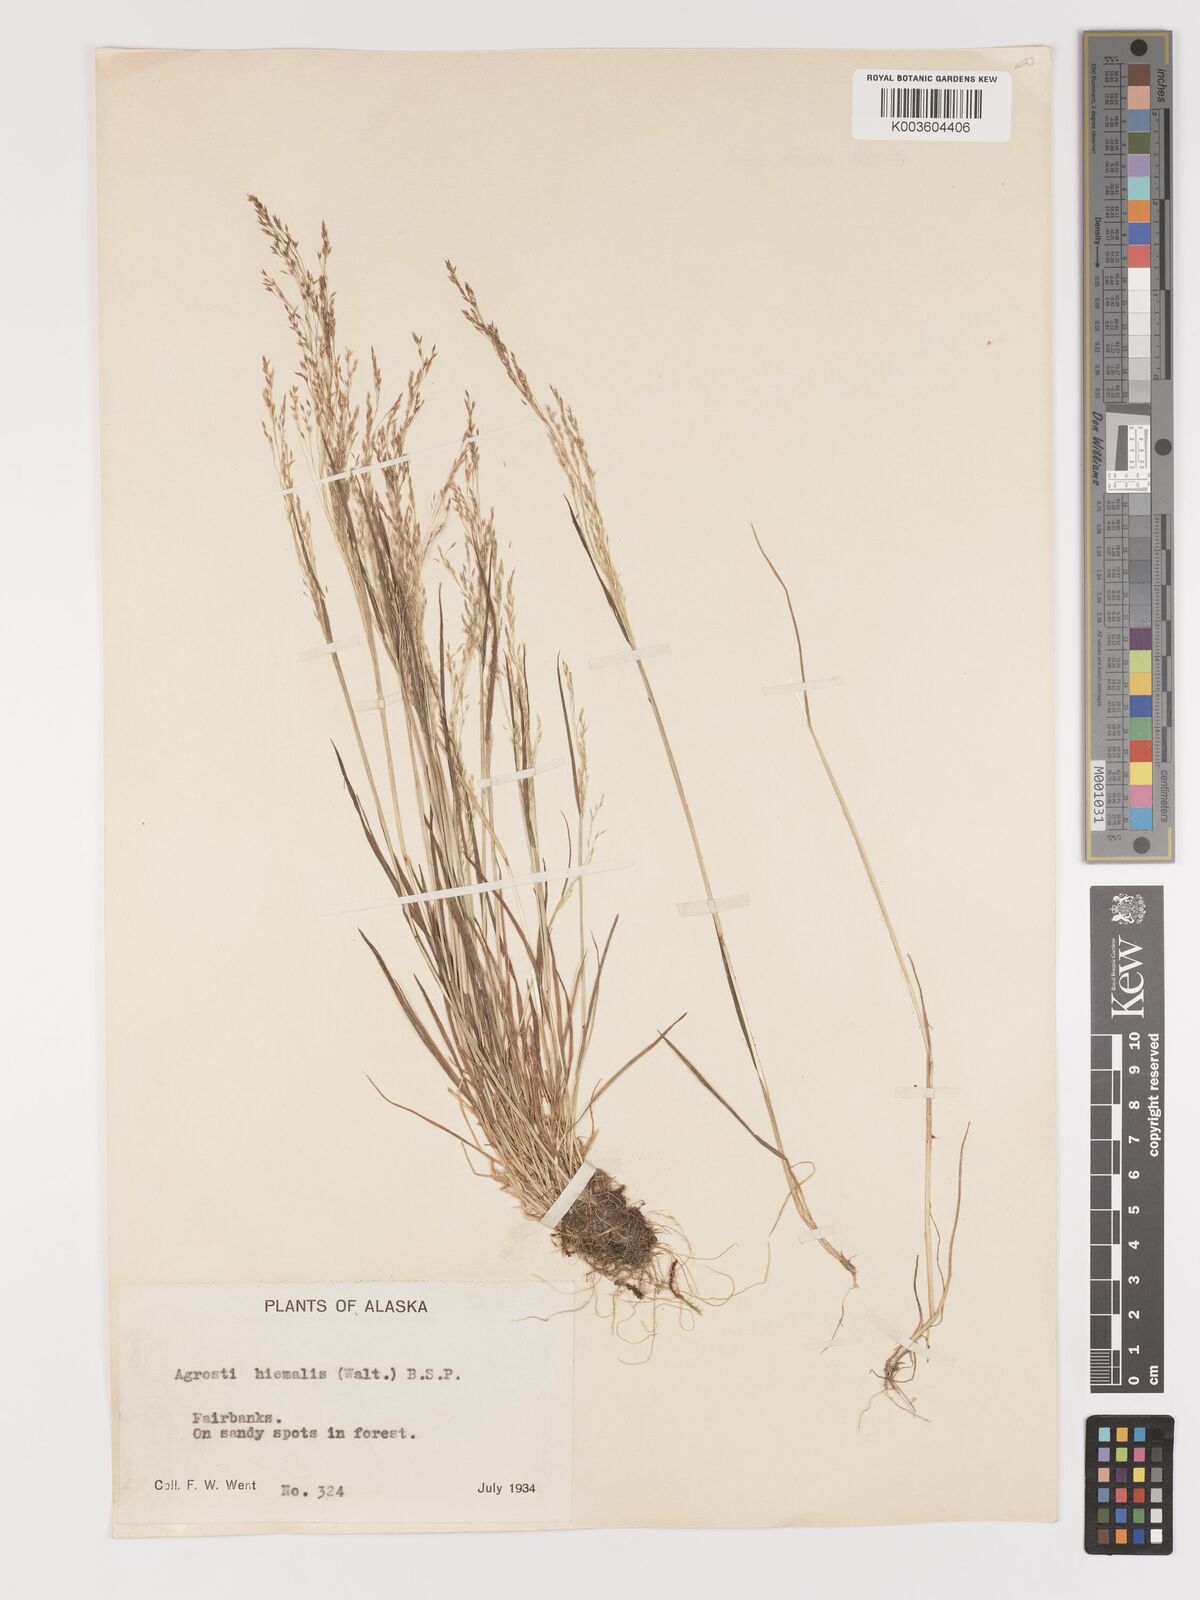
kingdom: Plantae
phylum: Tracheophyta
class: Liliopsida
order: Poales
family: Poaceae
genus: Agrostis
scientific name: Agrostis hyemalis
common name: Small bent
